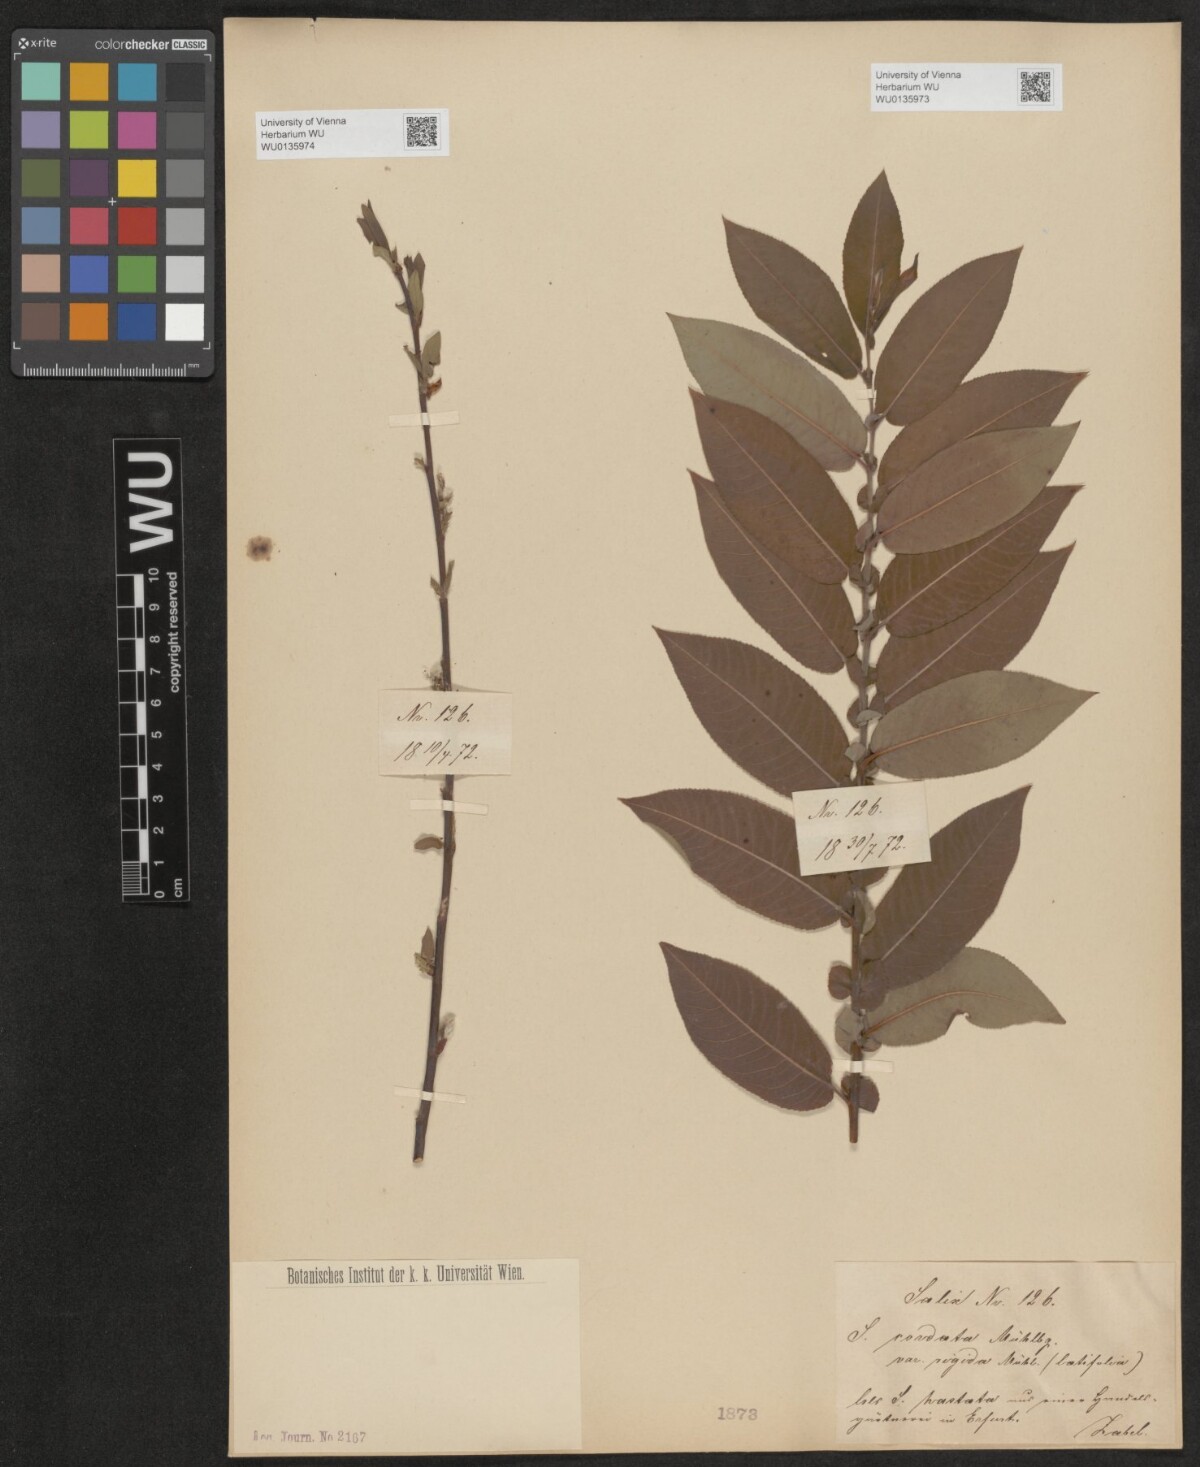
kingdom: Plantae
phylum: Tracheophyta
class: Magnoliopsida
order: Malpighiales
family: Salicaceae
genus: Salix
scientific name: Salix cordata
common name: Heart-leaf willow
